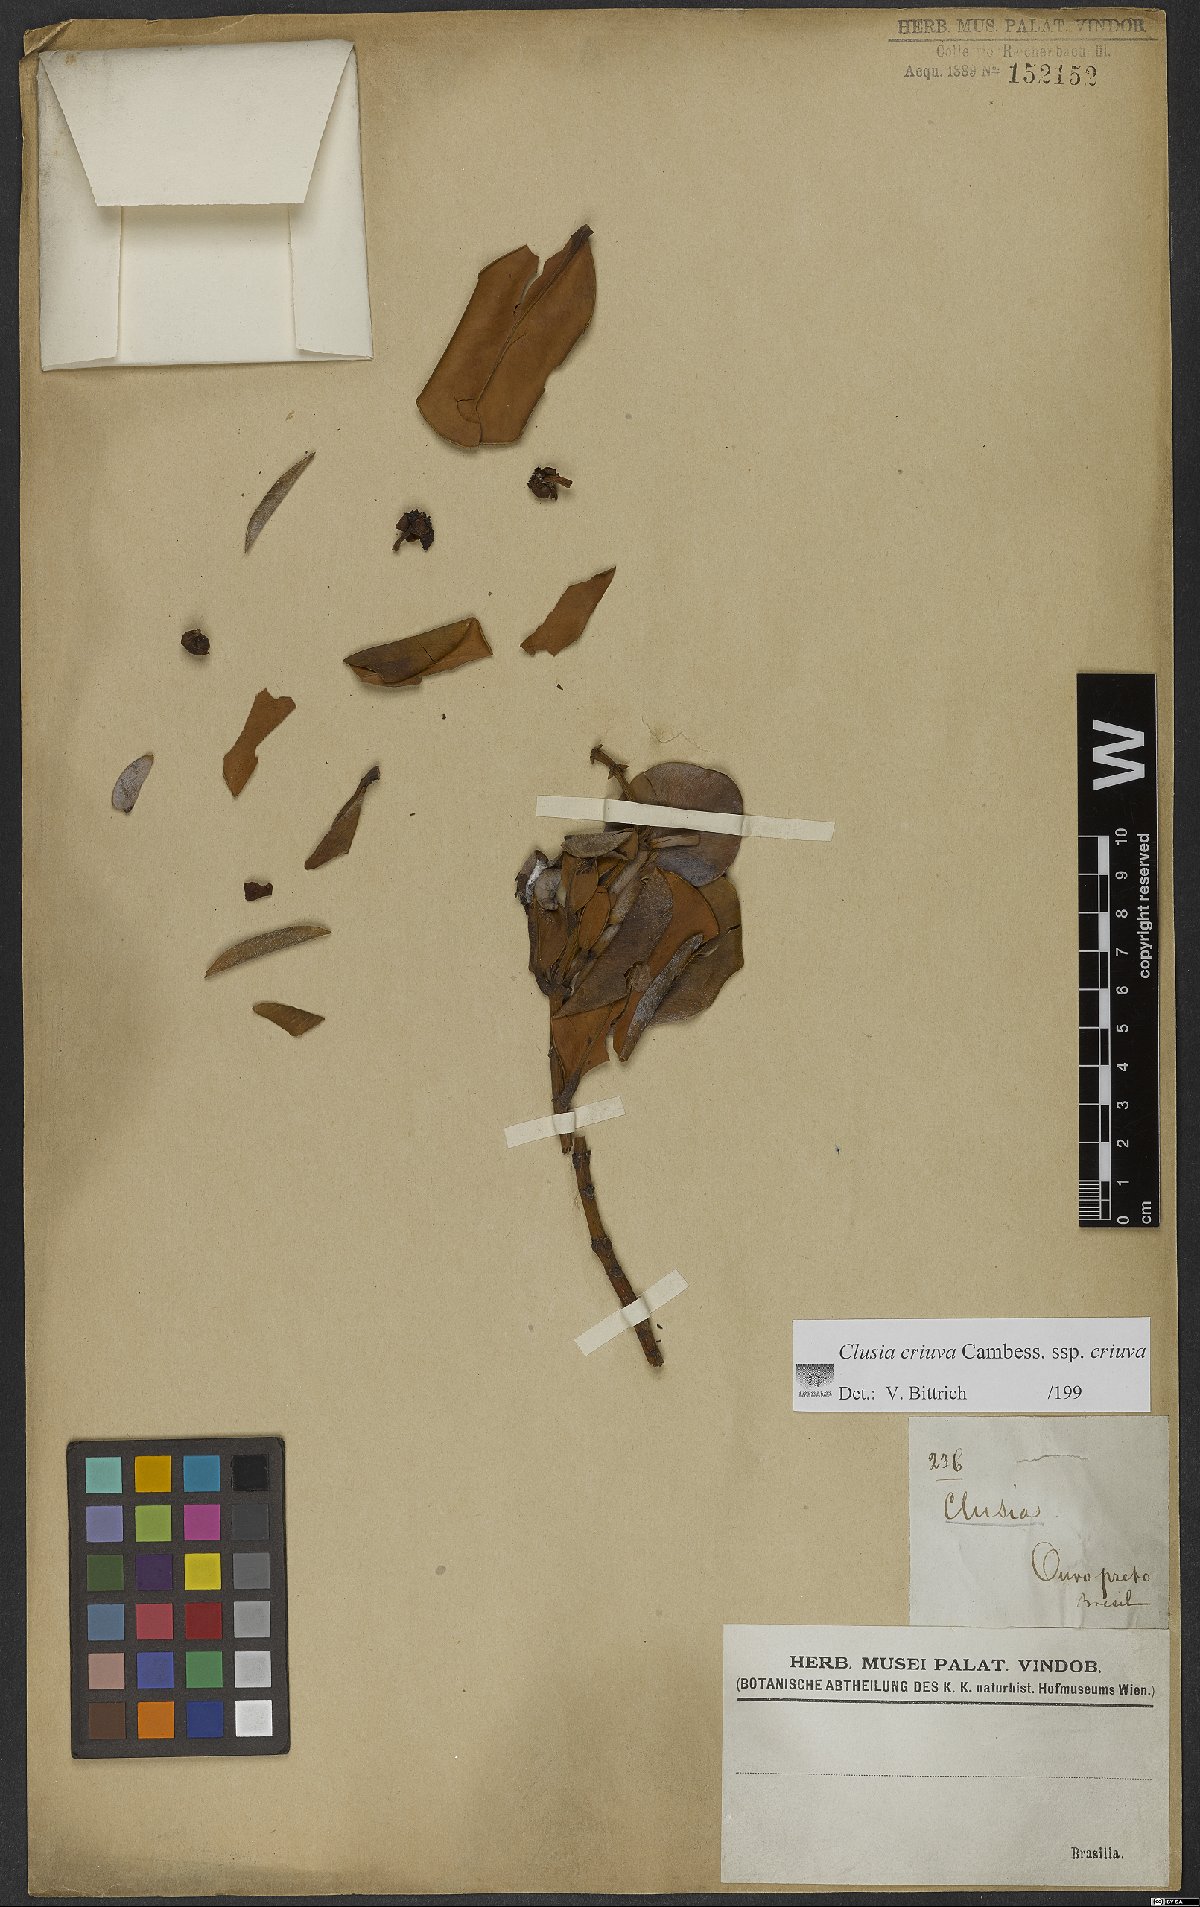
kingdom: Plantae
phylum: Tracheophyta
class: Magnoliopsida
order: Malpighiales
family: Clusiaceae
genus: Clusia
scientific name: Clusia criuva
